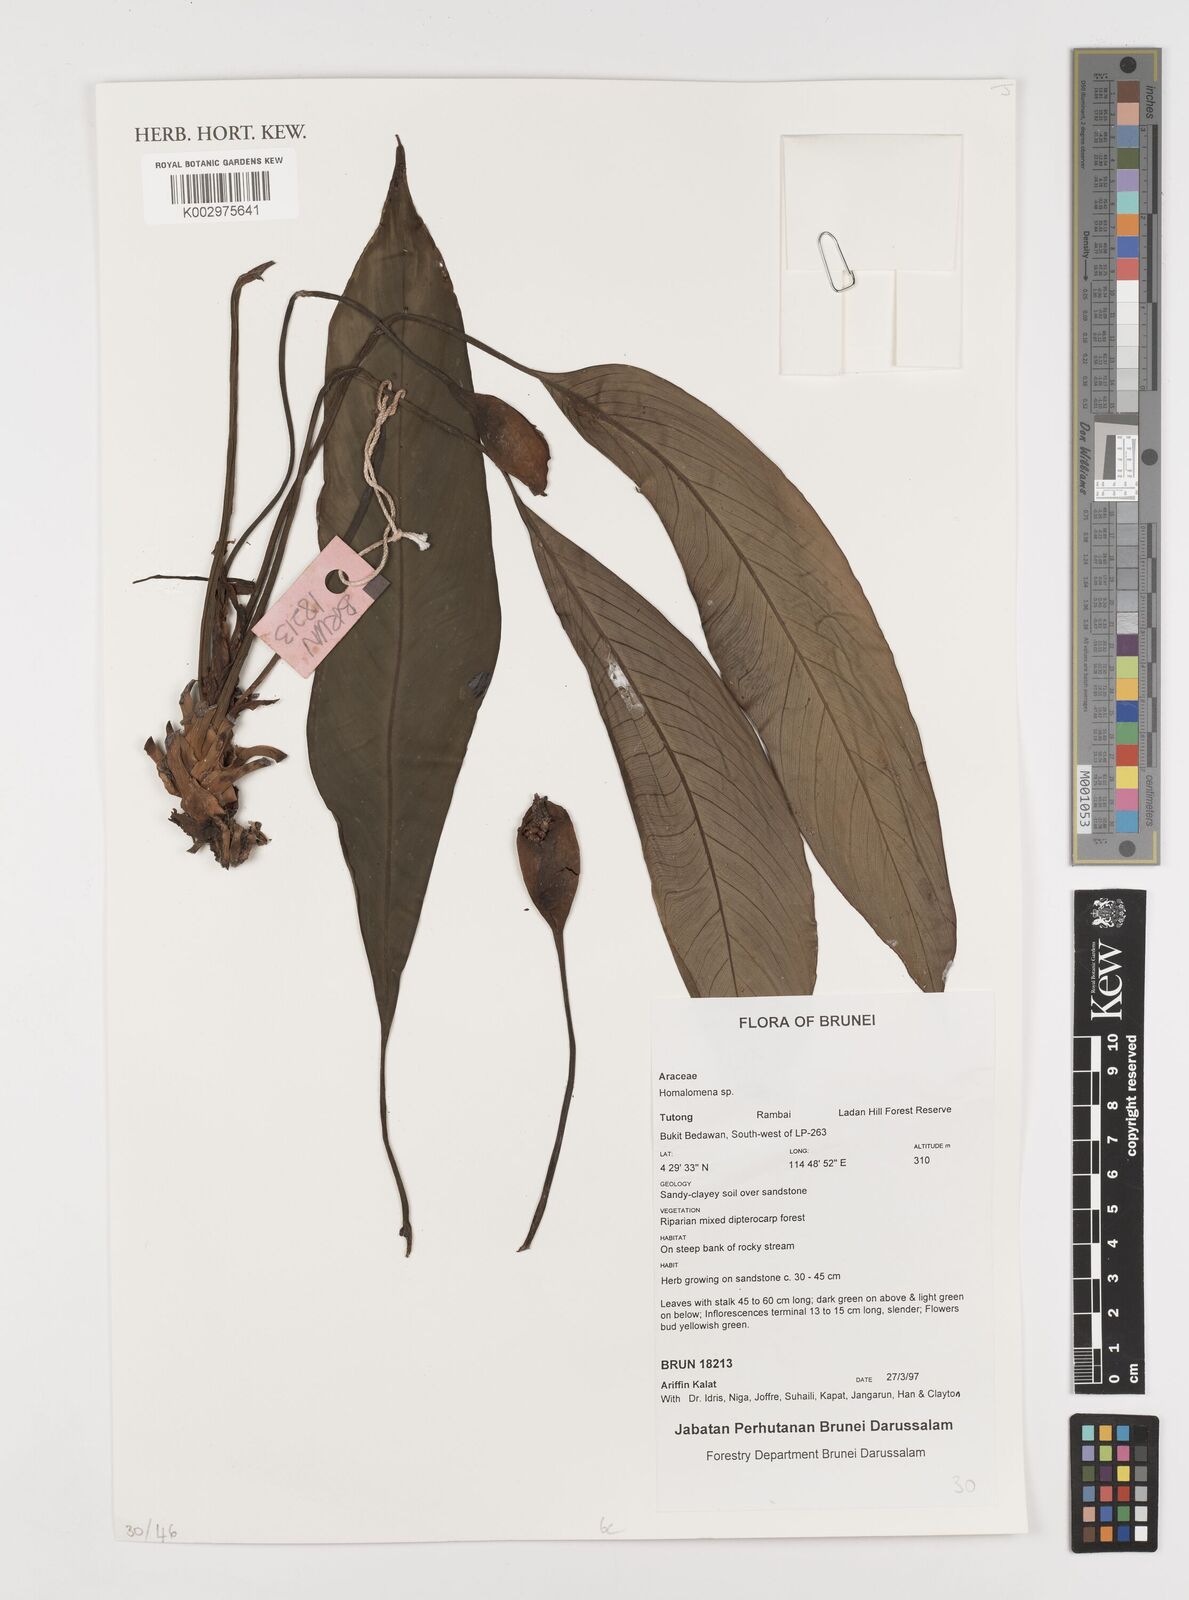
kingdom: Plantae
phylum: Tracheophyta
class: Liliopsida
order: Alismatales
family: Araceae
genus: Homalomena
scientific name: Homalomena
